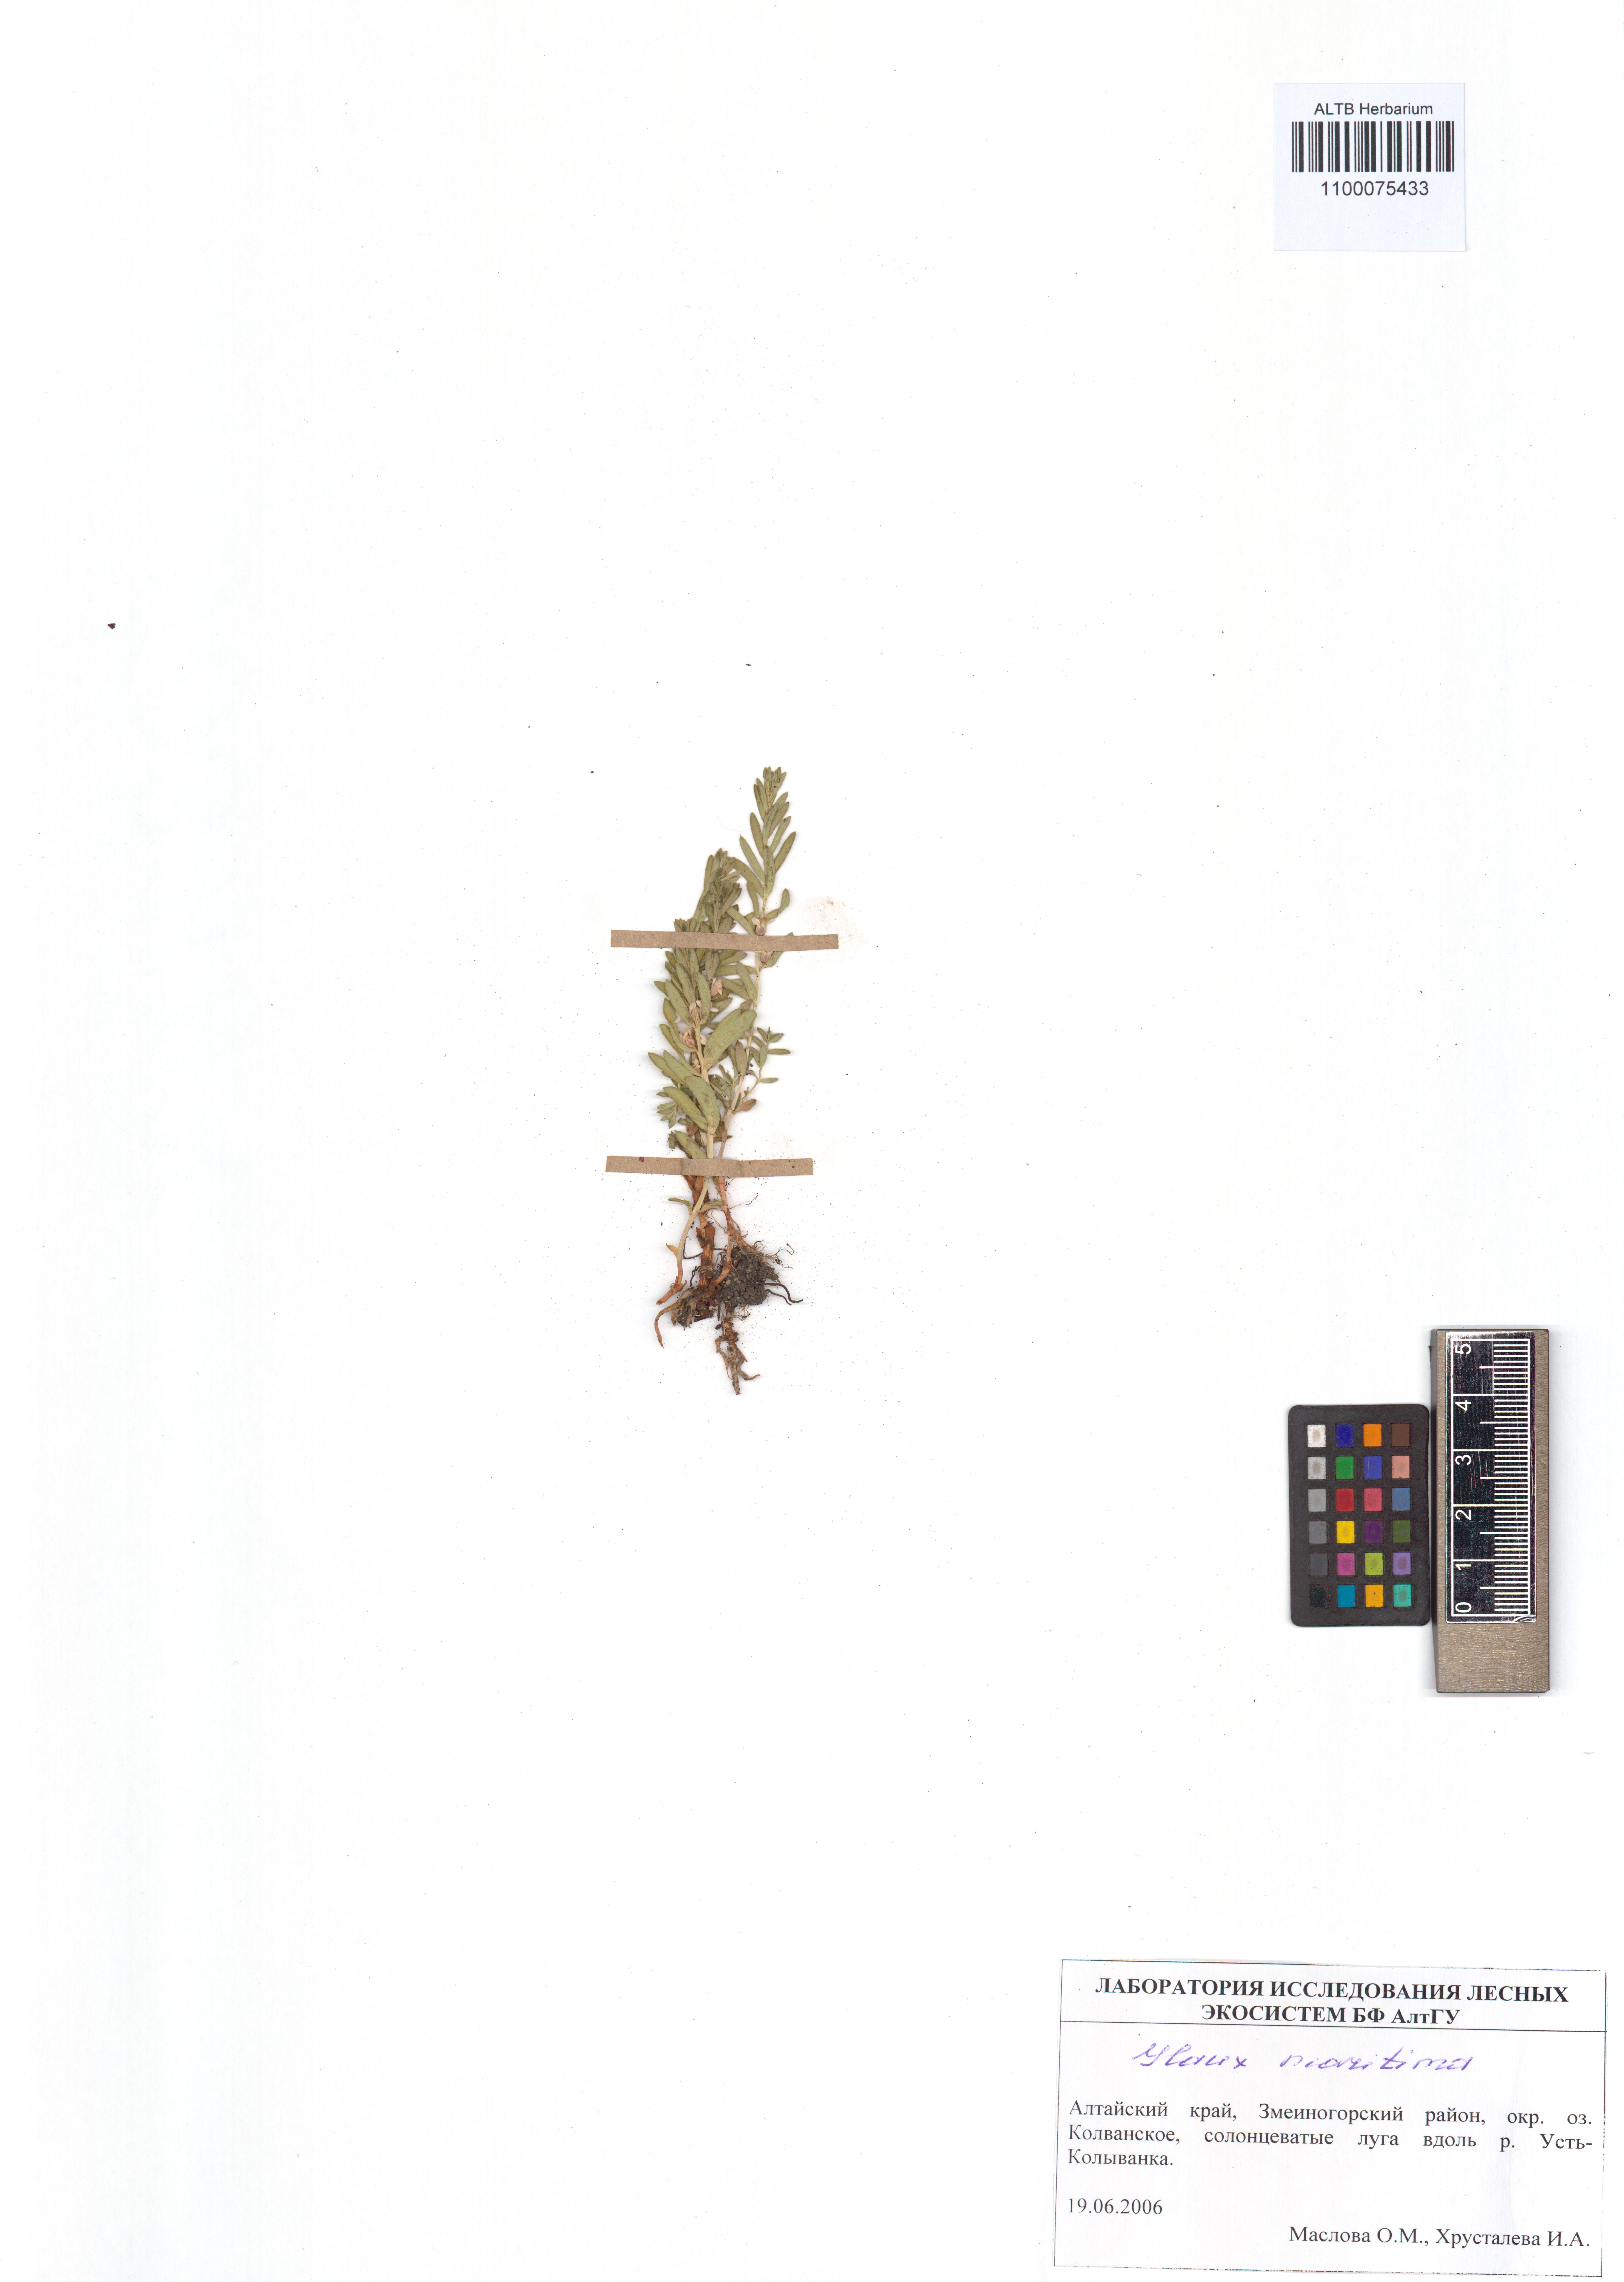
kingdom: Plantae
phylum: Tracheophyta
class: Magnoliopsida
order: Ericales
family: Primulaceae
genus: Lysimachia
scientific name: Lysimachia maritima
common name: Sea milkwort
